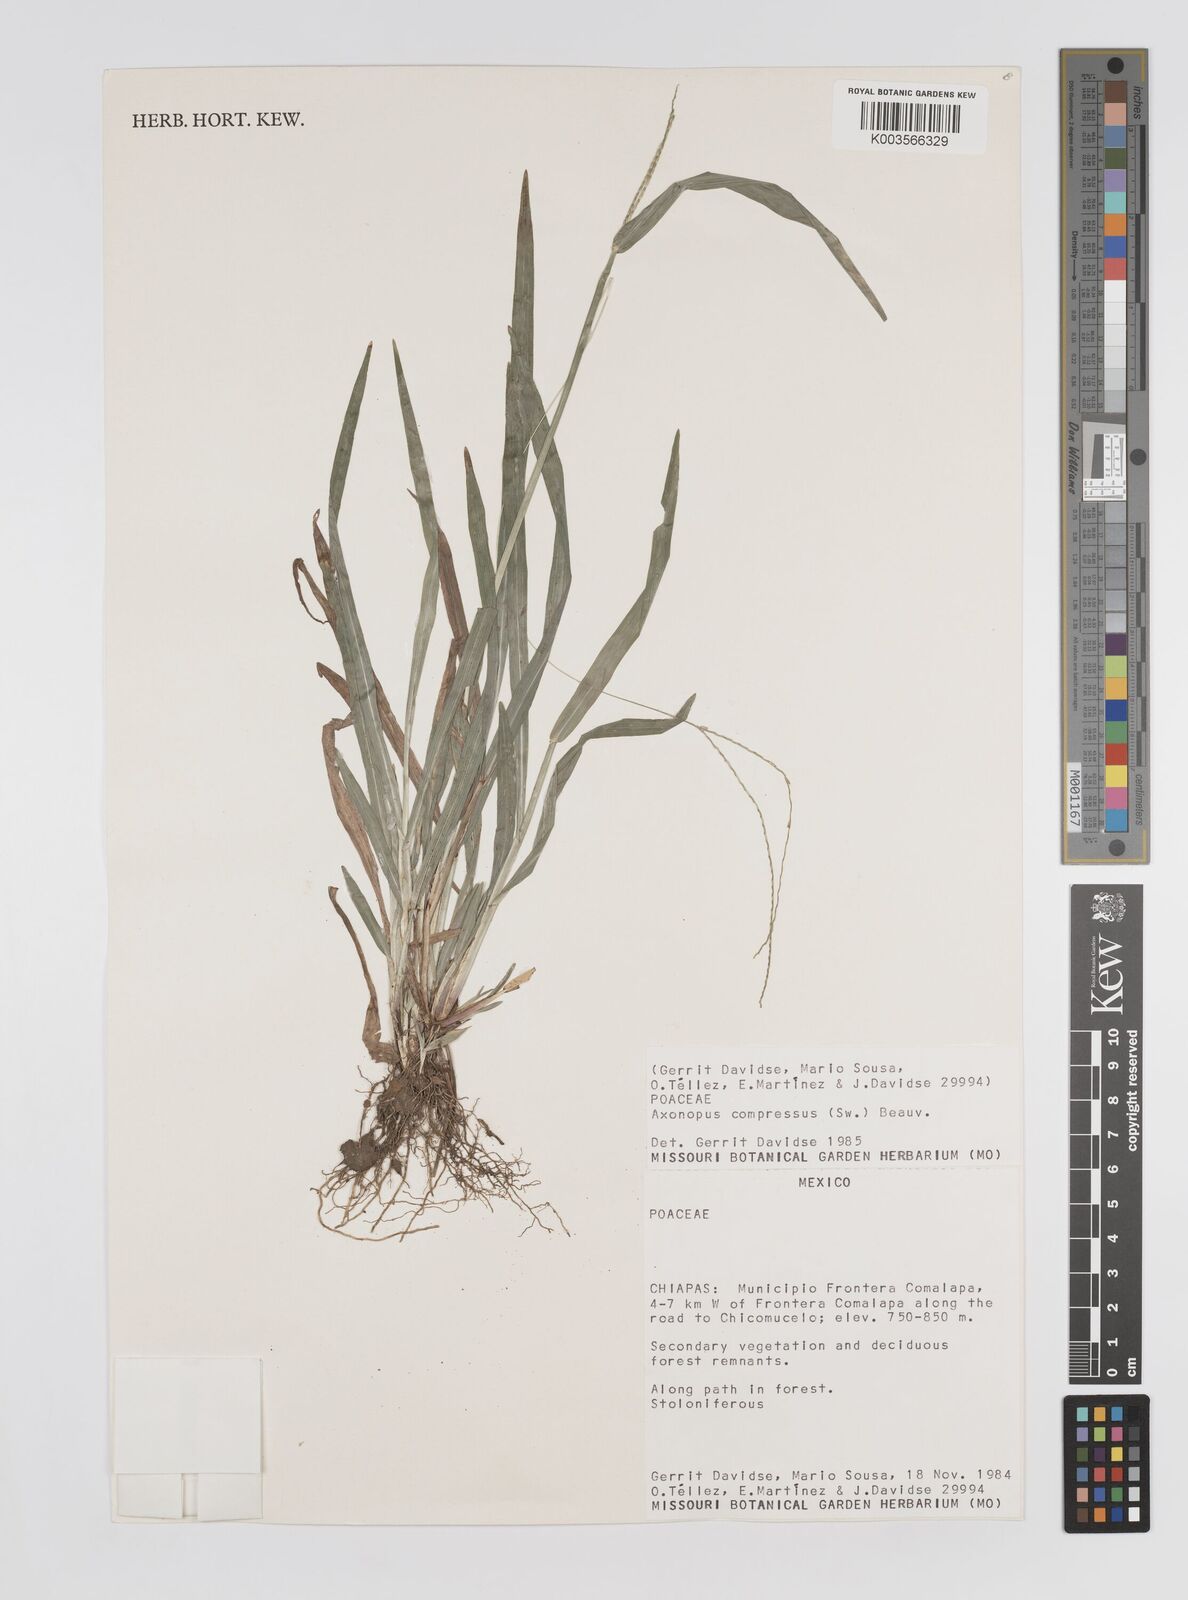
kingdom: Plantae
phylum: Tracheophyta
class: Liliopsida
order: Poales
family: Poaceae
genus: Axonopus
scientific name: Axonopus compressus
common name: American carpet grass
